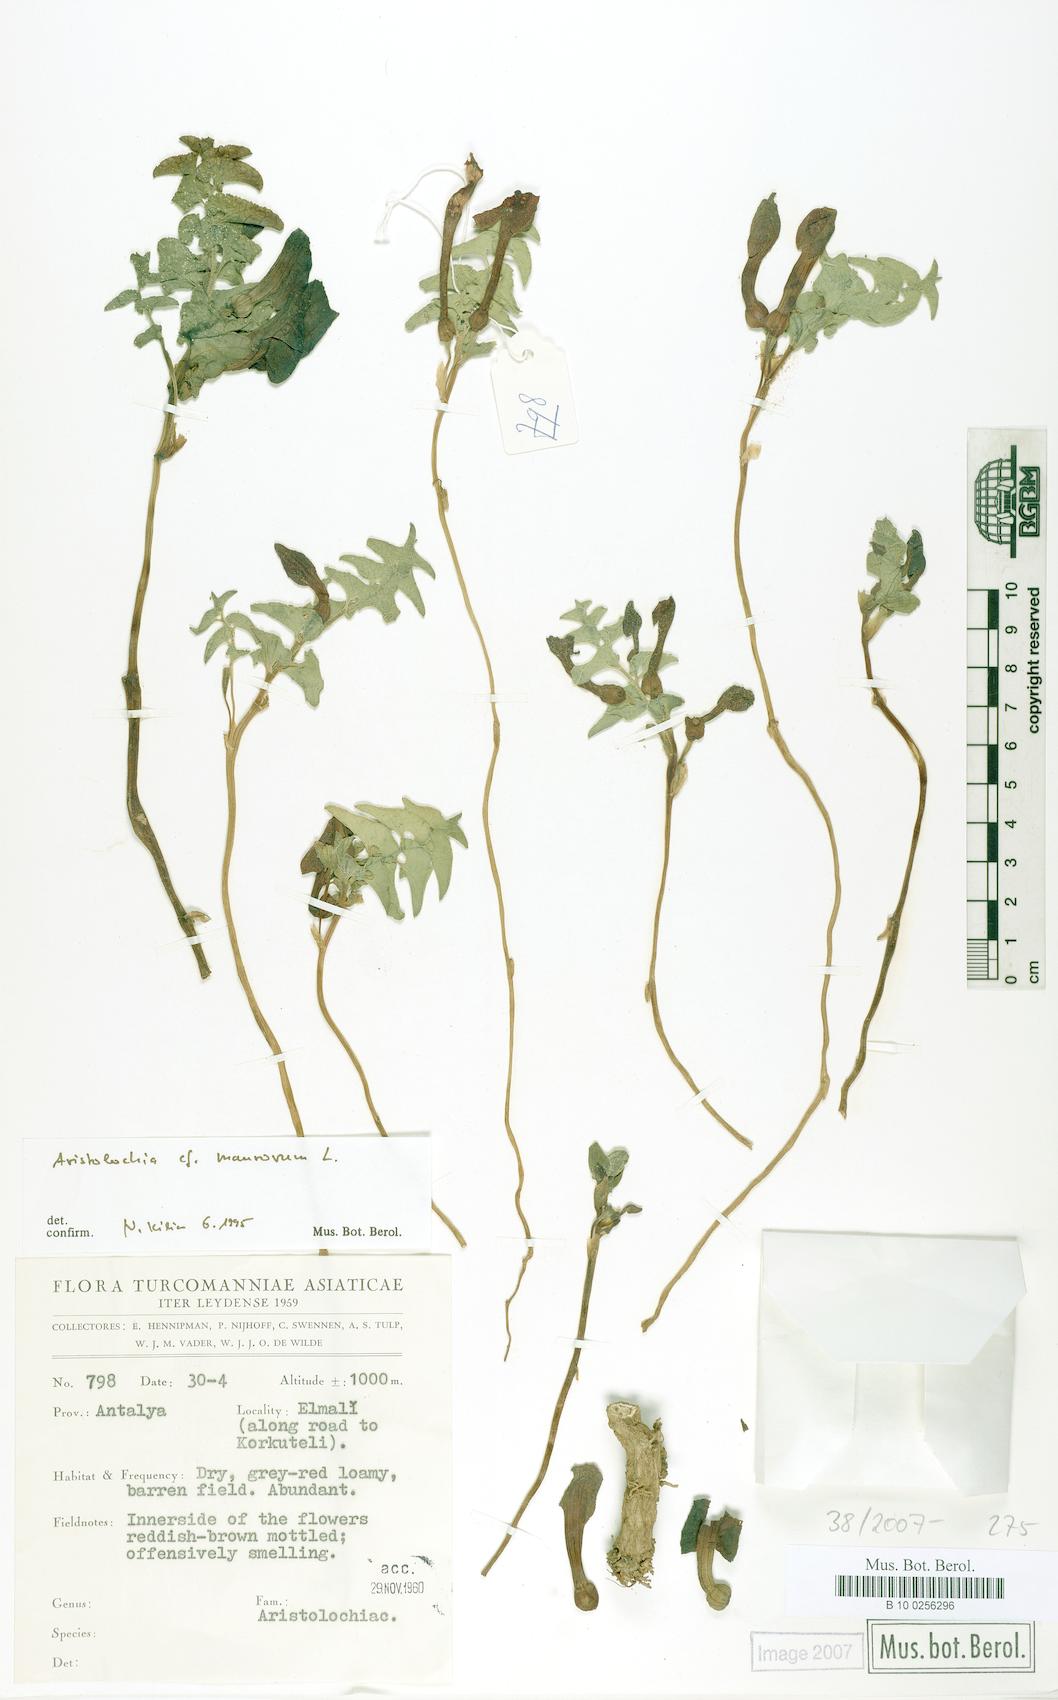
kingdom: Plantae
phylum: Tracheophyta
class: Magnoliopsida
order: Piperales
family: Aristolochiaceae
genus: Aristolochia
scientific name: Aristolochia auricularia
